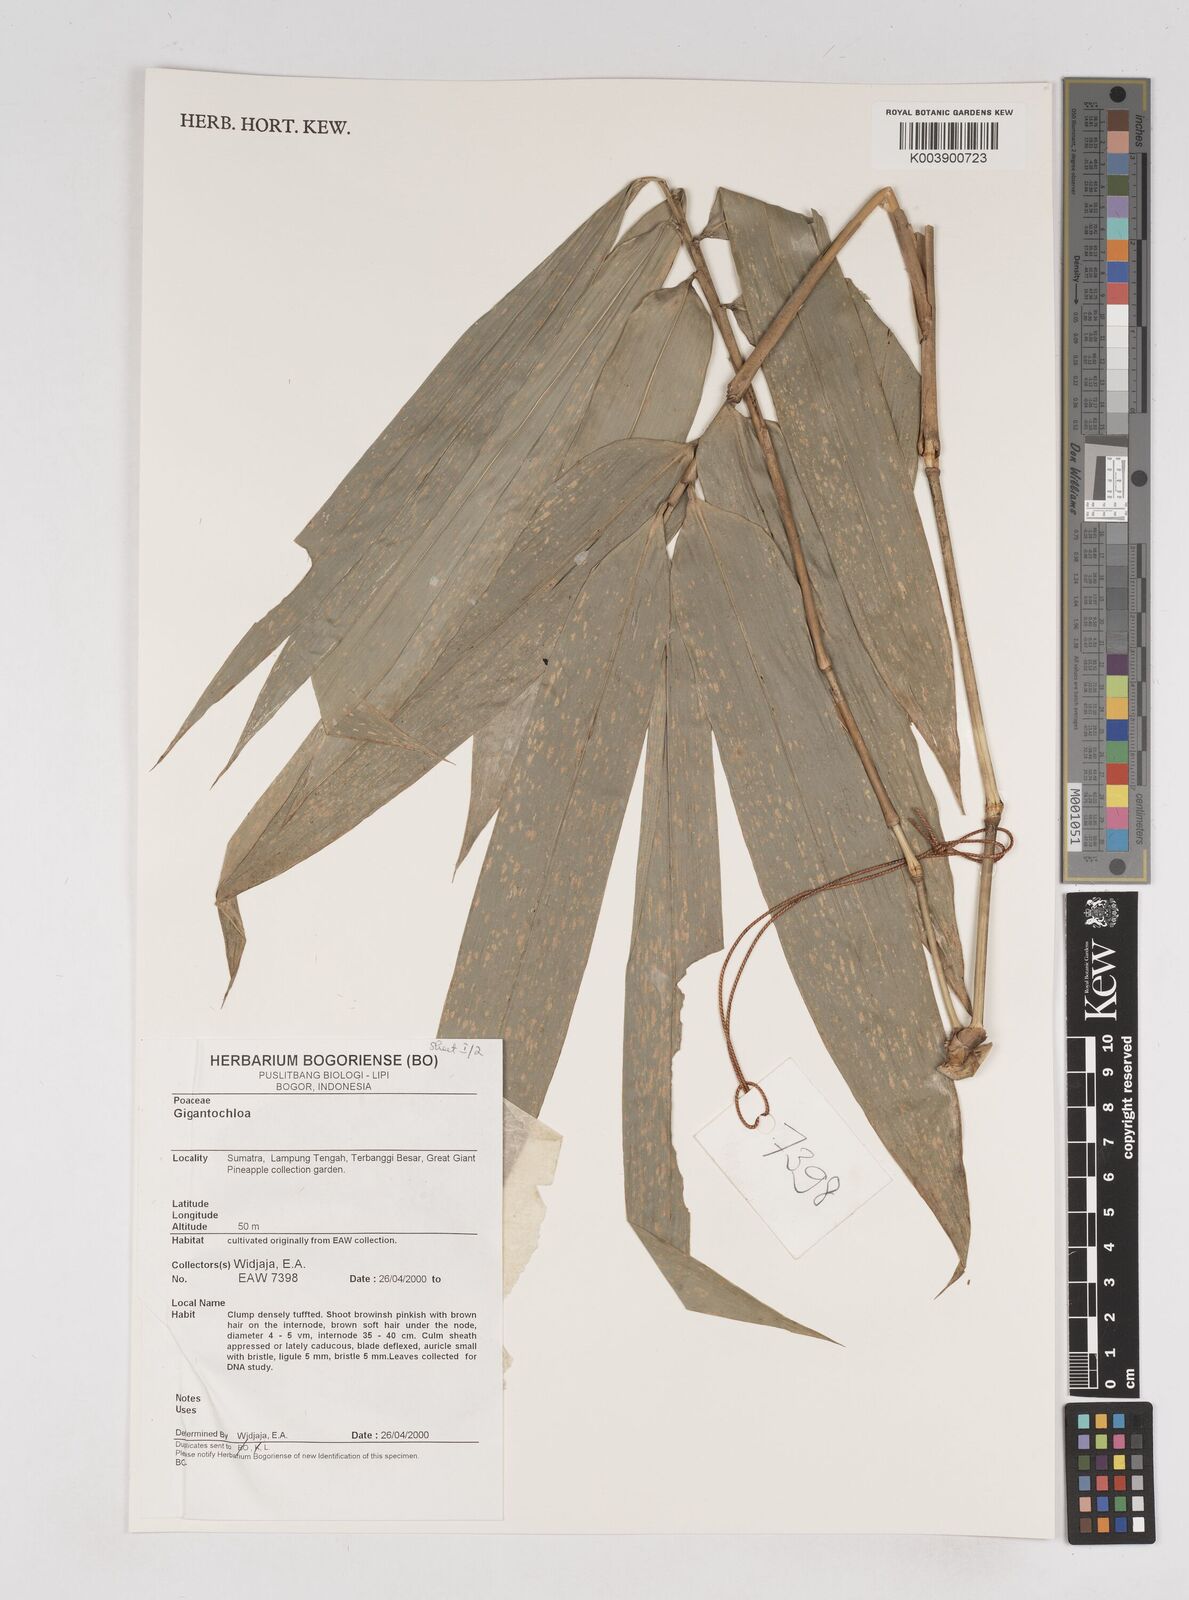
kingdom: Plantae
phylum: Tracheophyta
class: Liliopsida
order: Poales
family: Poaceae
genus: Gigantochloa
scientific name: Gigantochloa
